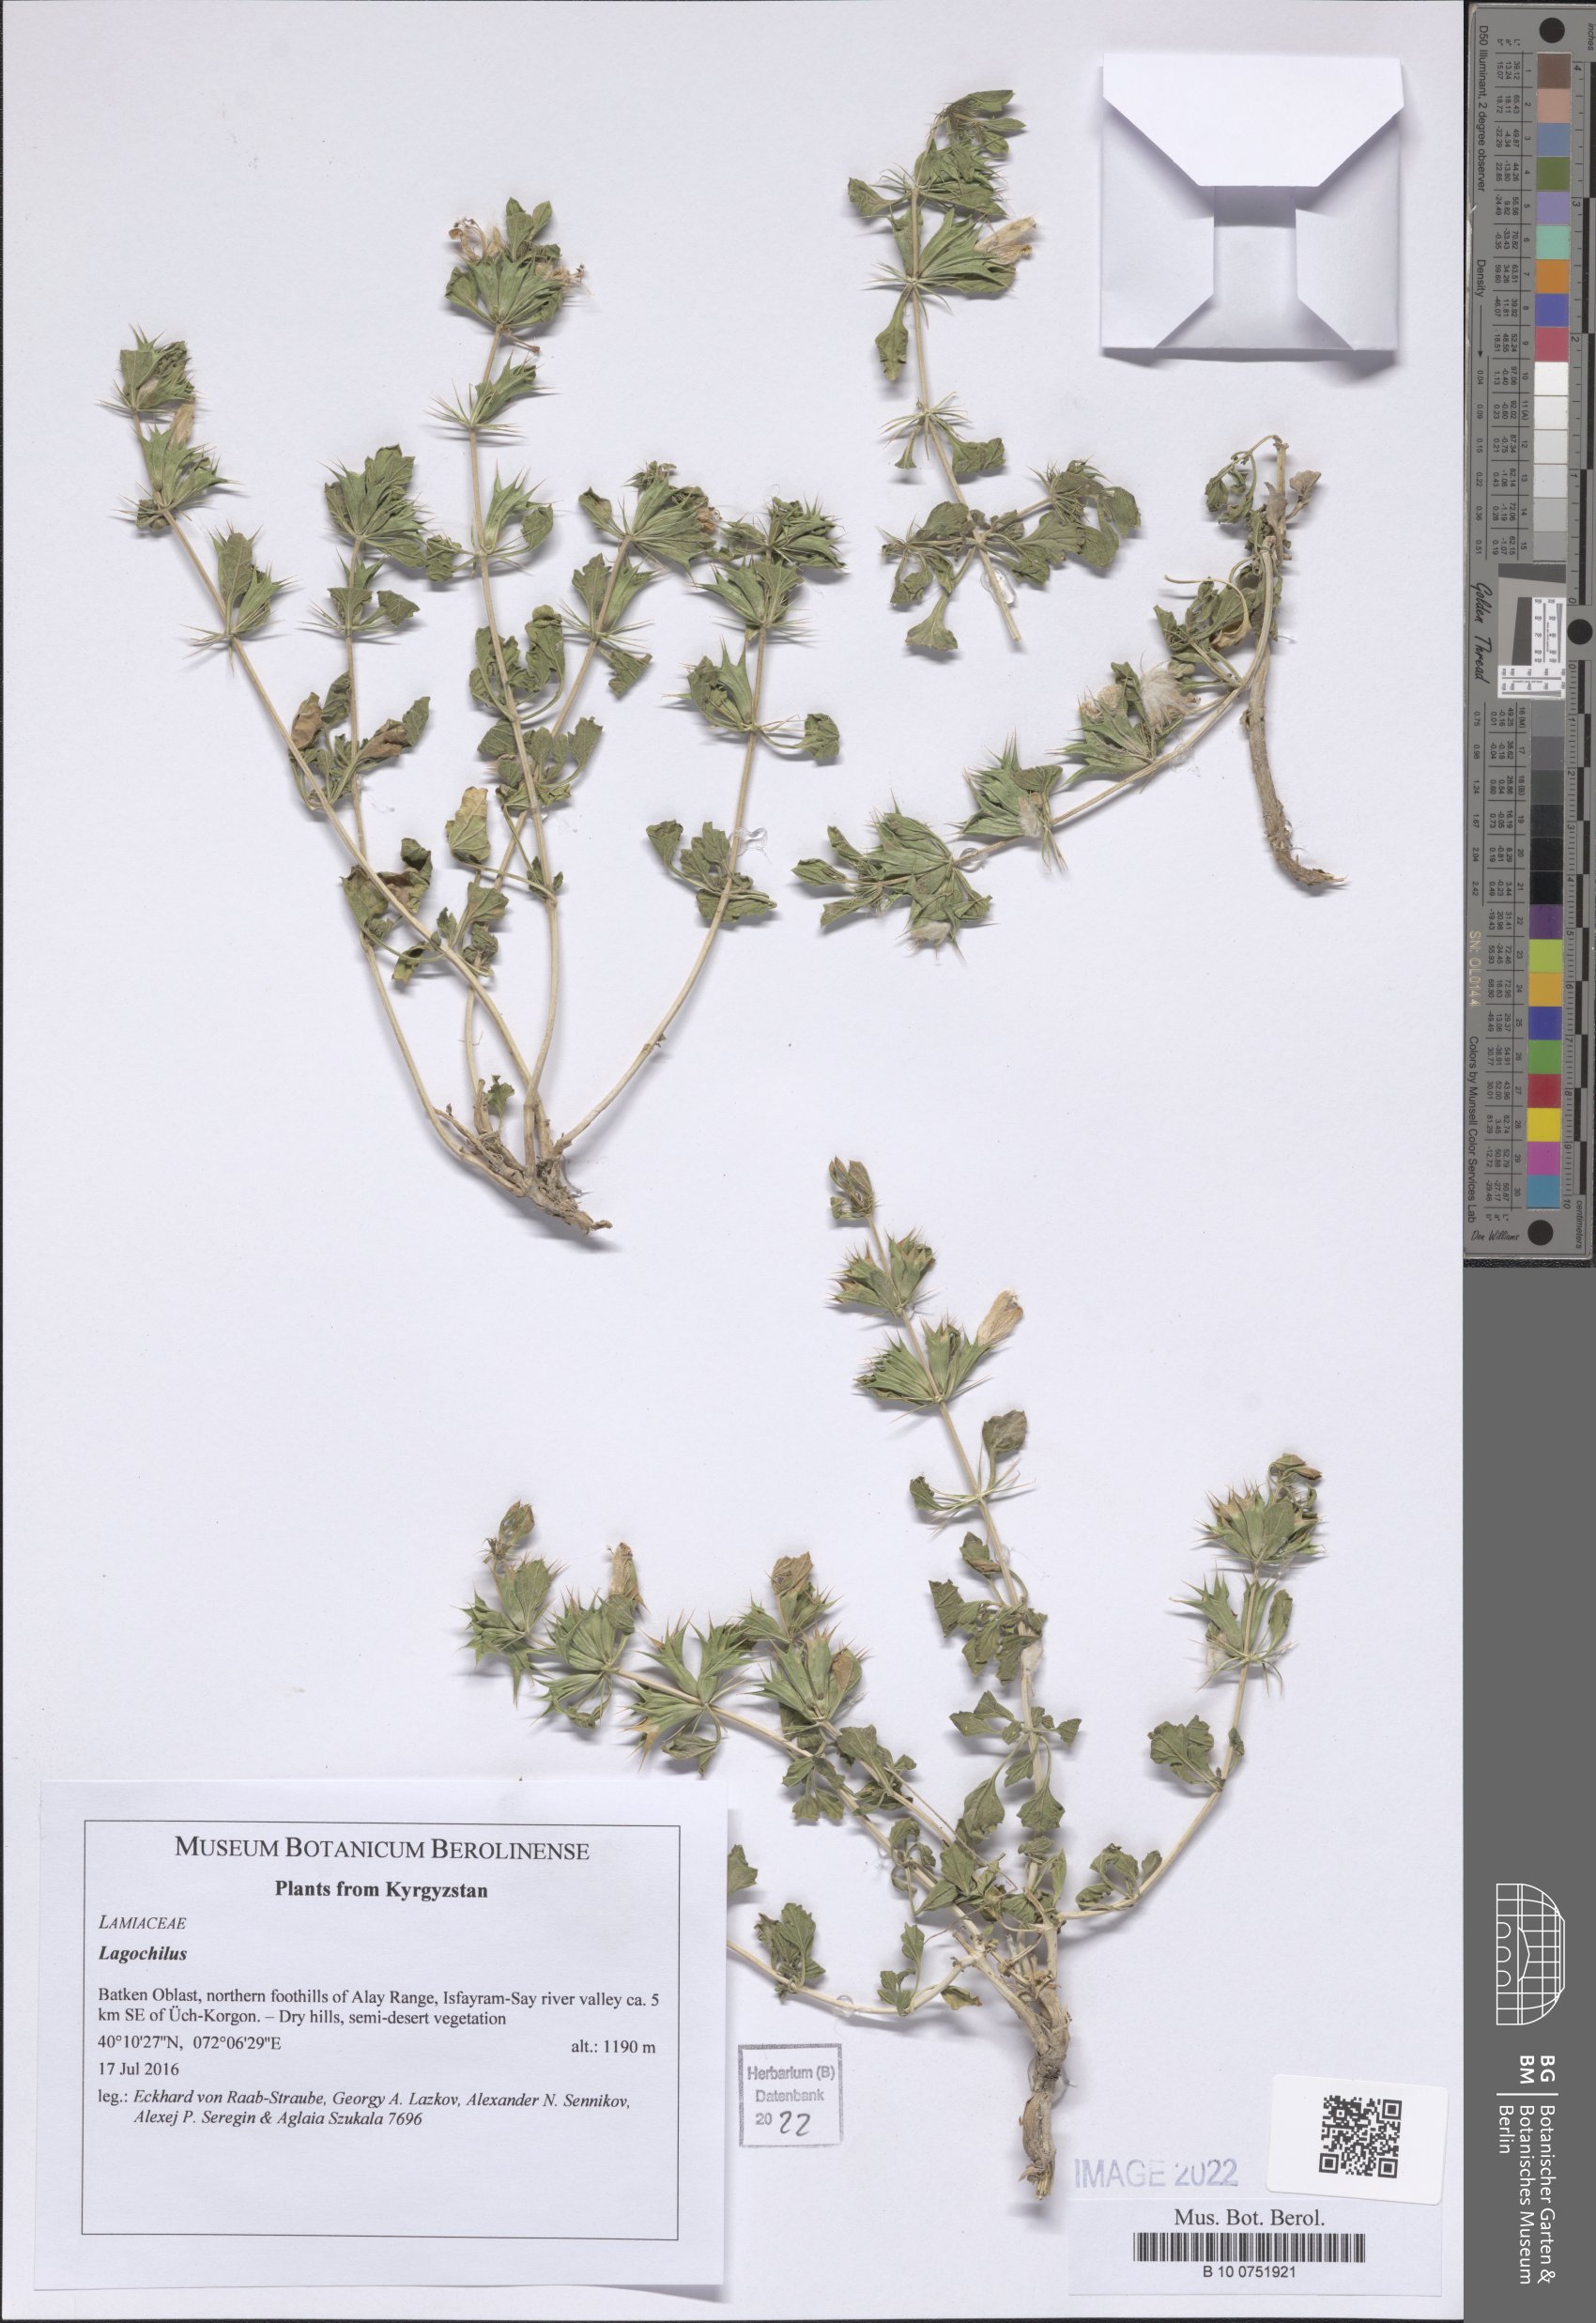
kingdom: Plantae
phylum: Tracheophyta
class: Magnoliopsida
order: Lamiales
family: Lamiaceae
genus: Lagochilus
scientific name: Lagochilus
